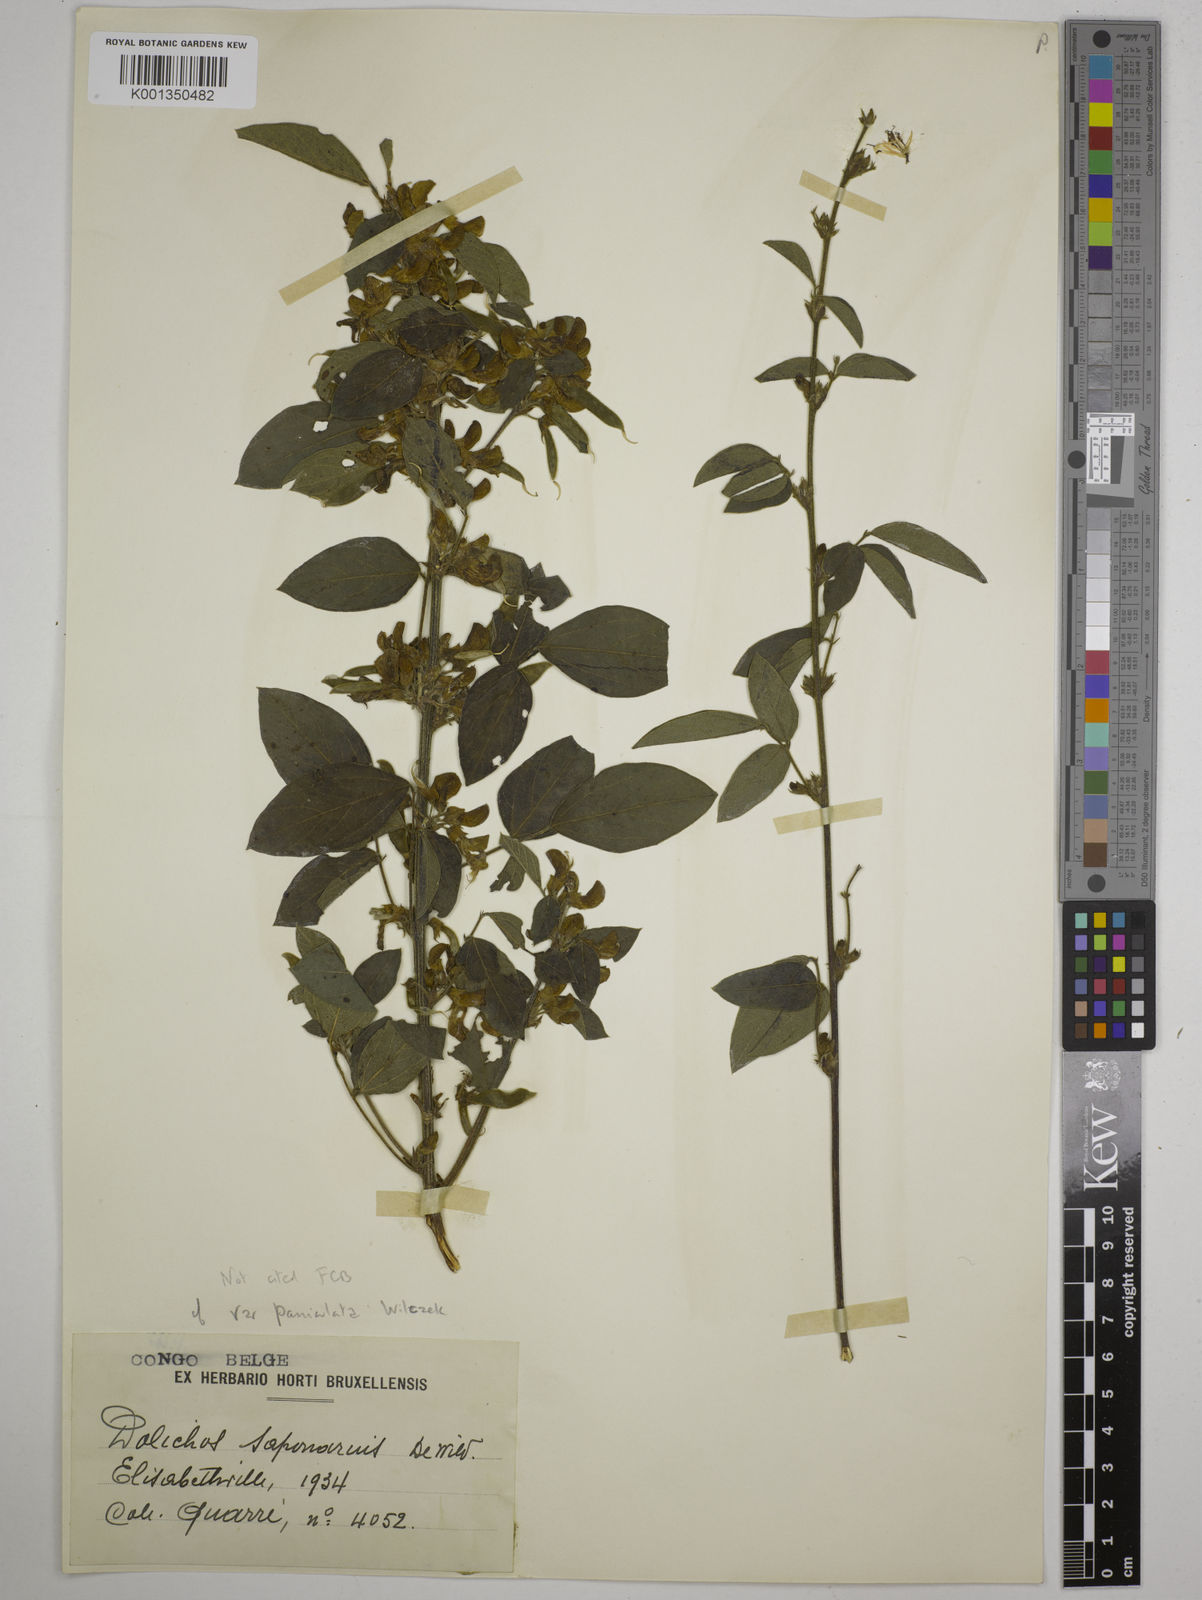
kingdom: Plantae
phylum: Tracheophyta
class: Magnoliopsida
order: Fabales
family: Fabaceae
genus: Dolichos
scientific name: Dolichos pseudocajanus
